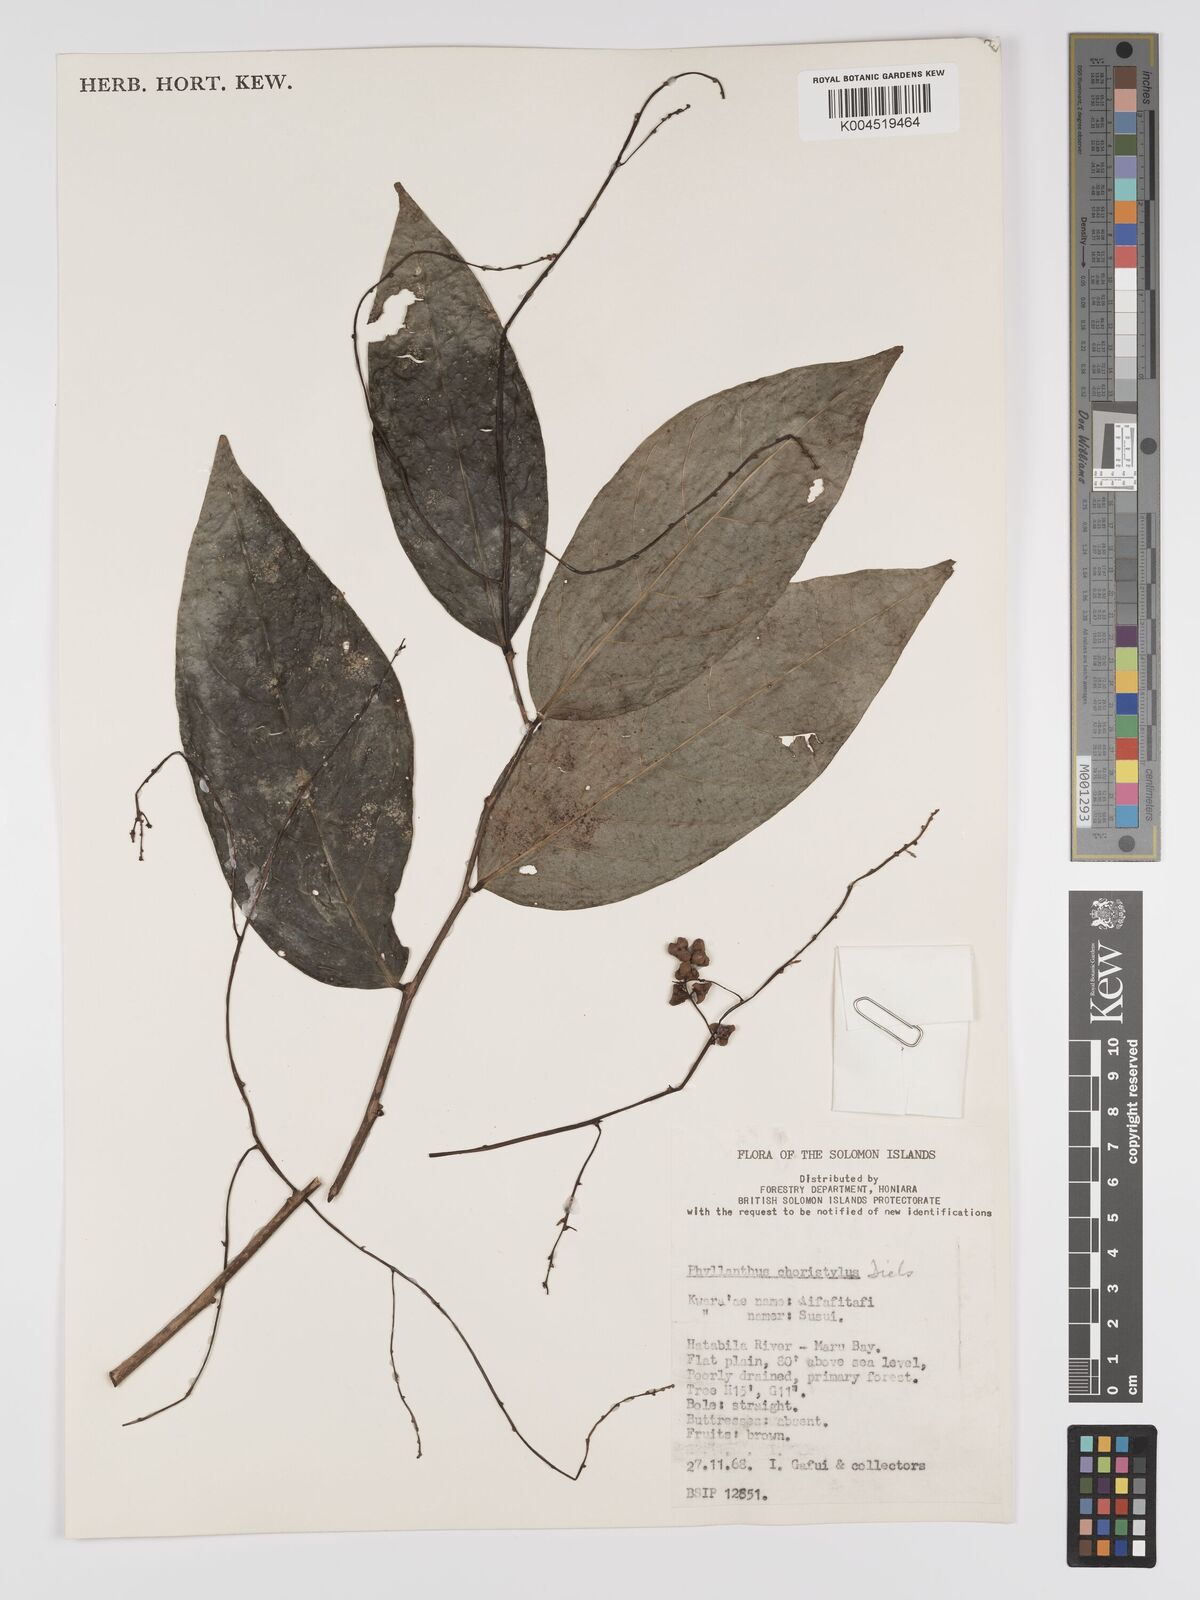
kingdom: Plantae
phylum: Tracheophyta
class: Magnoliopsida
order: Malpighiales
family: Phyllanthaceae
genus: Phyllanthus
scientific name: Phyllanthus clamboides
